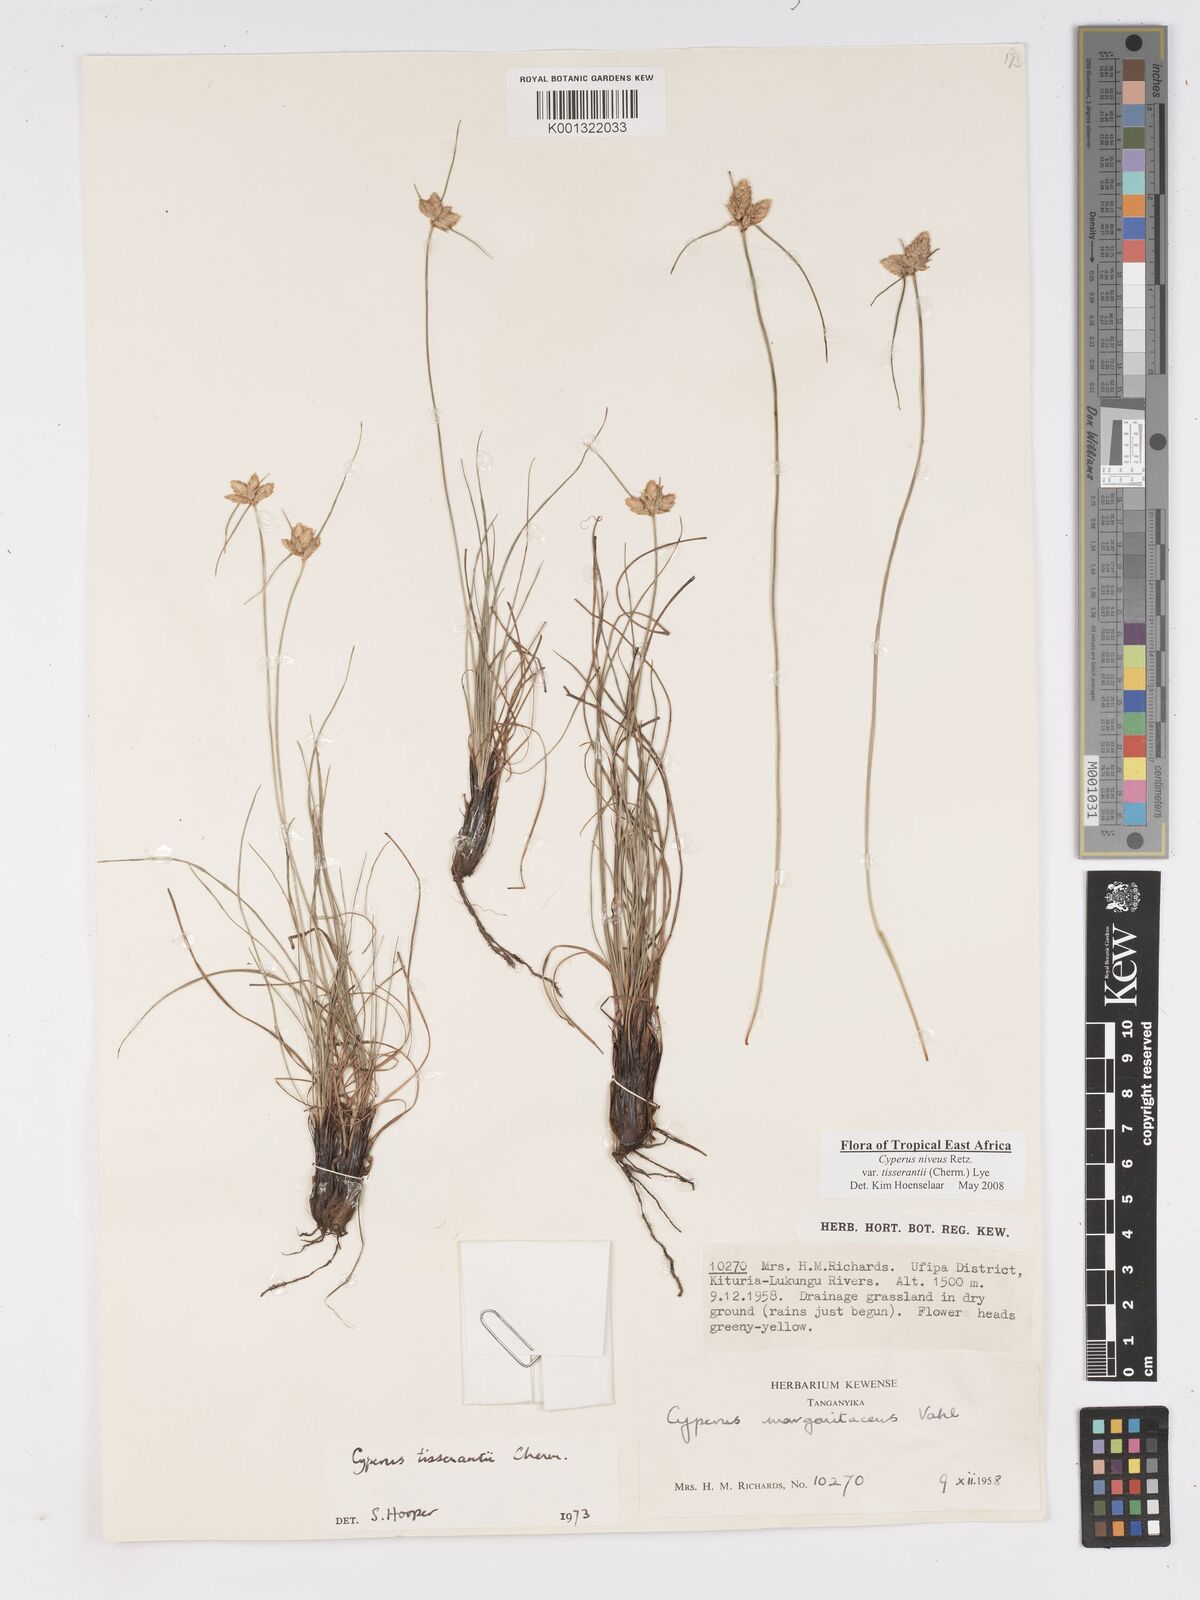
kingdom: Plantae
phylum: Tracheophyta
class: Liliopsida
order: Poales
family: Cyperaceae
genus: Cyperus
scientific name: Cyperus niveus
